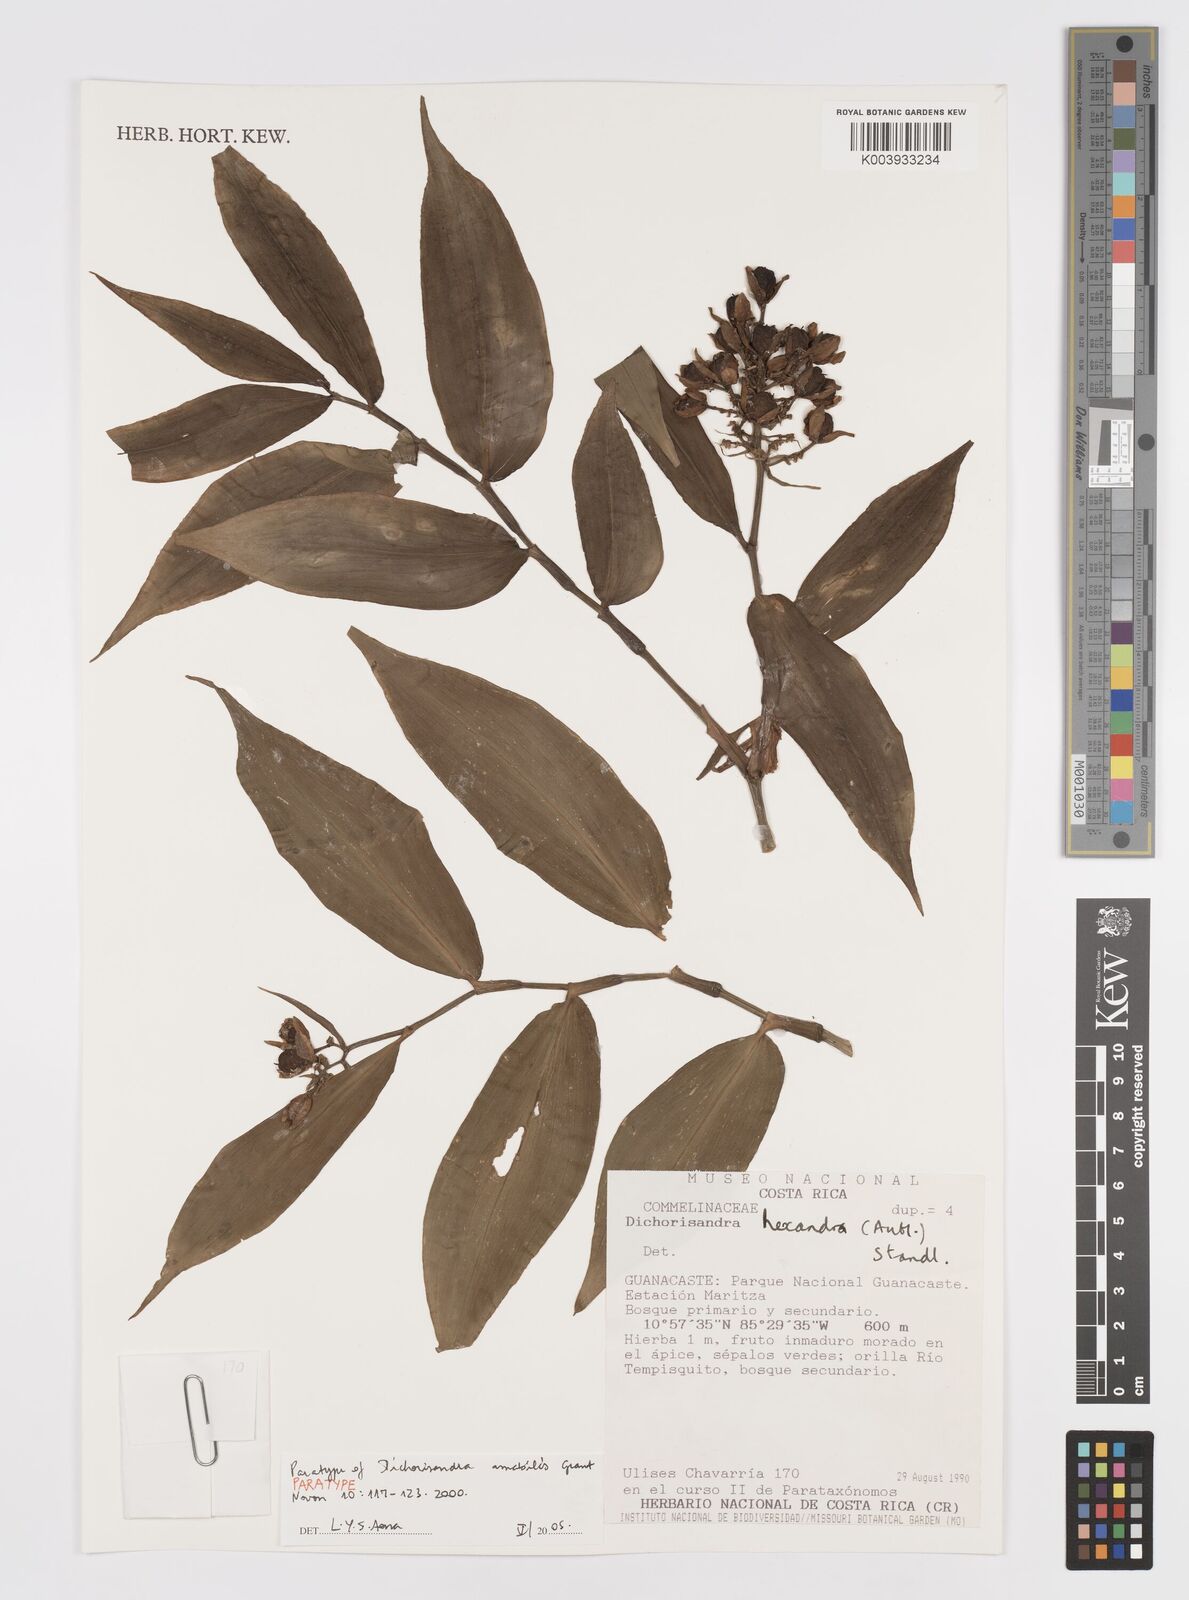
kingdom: Plantae
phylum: Tracheophyta
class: Liliopsida
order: Commelinales
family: Commelinaceae
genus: Dichorisandra
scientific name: Dichorisandra amabilis
